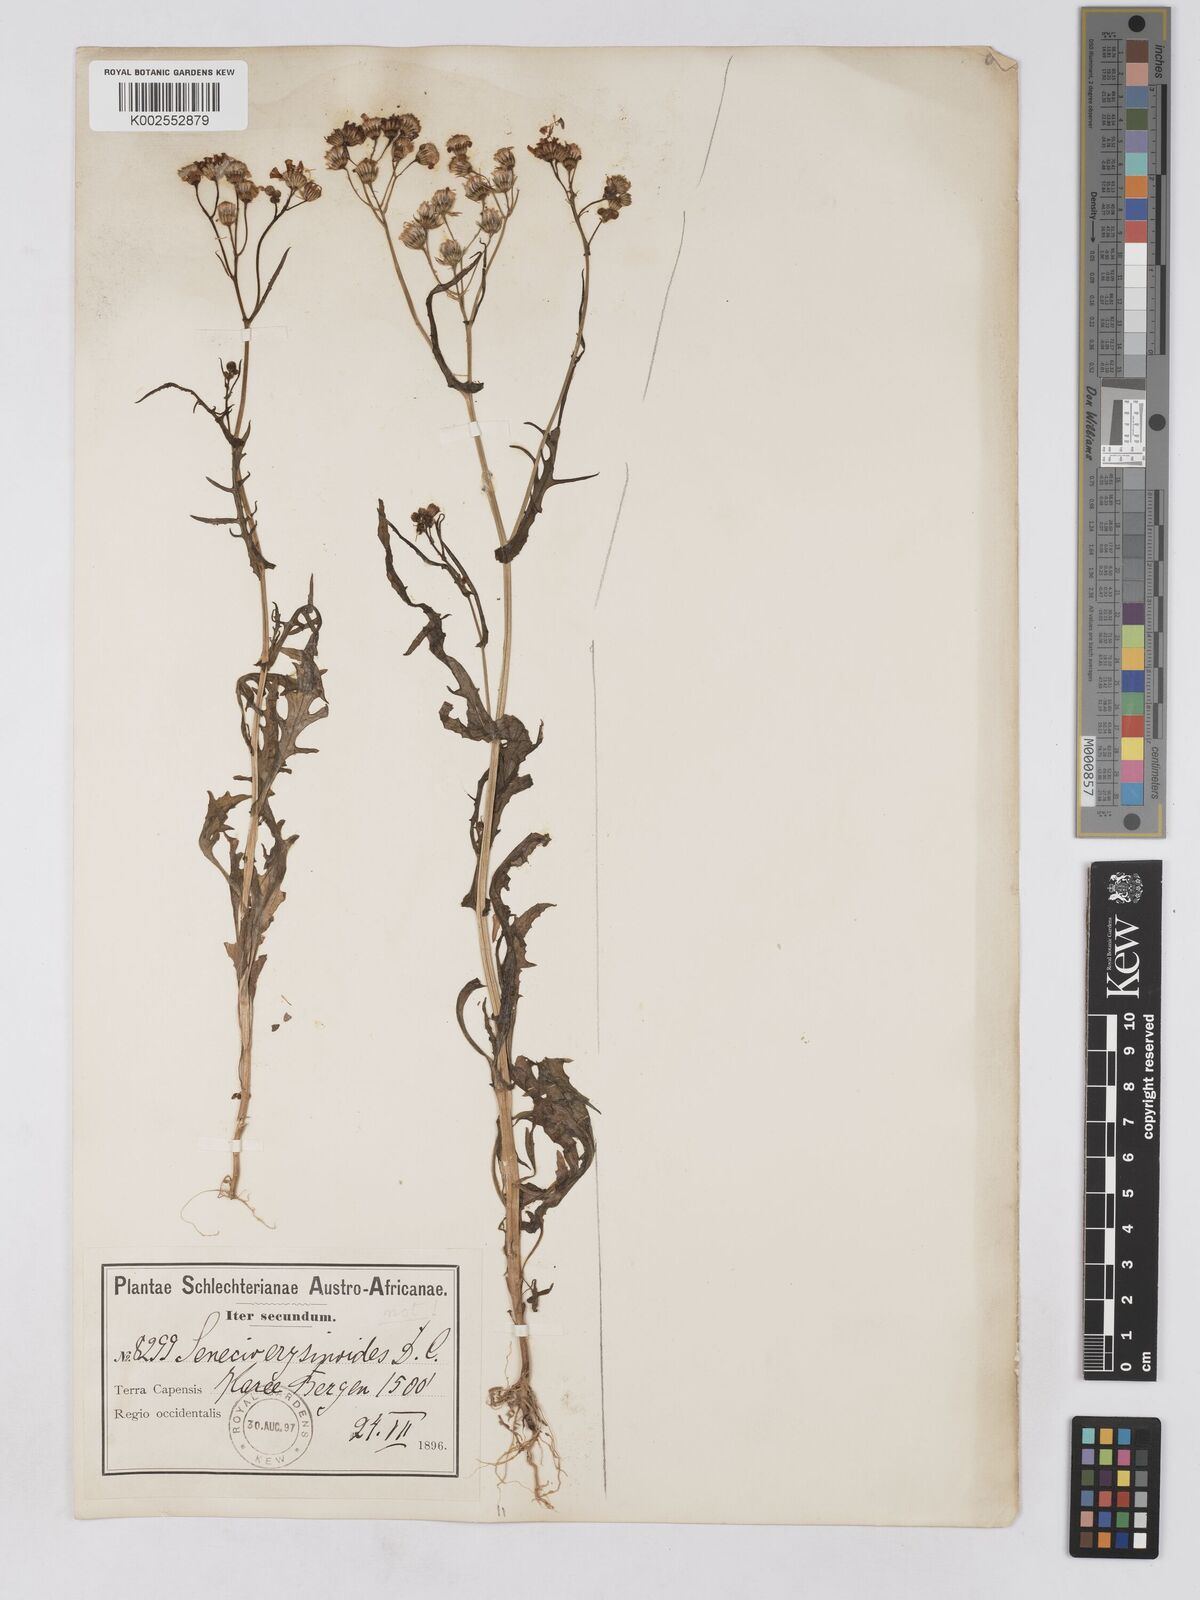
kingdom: Plantae
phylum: Tracheophyta
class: Magnoliopsida
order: Asterales
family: Asteraceae
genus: Senecio
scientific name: Senecio erysimoides
